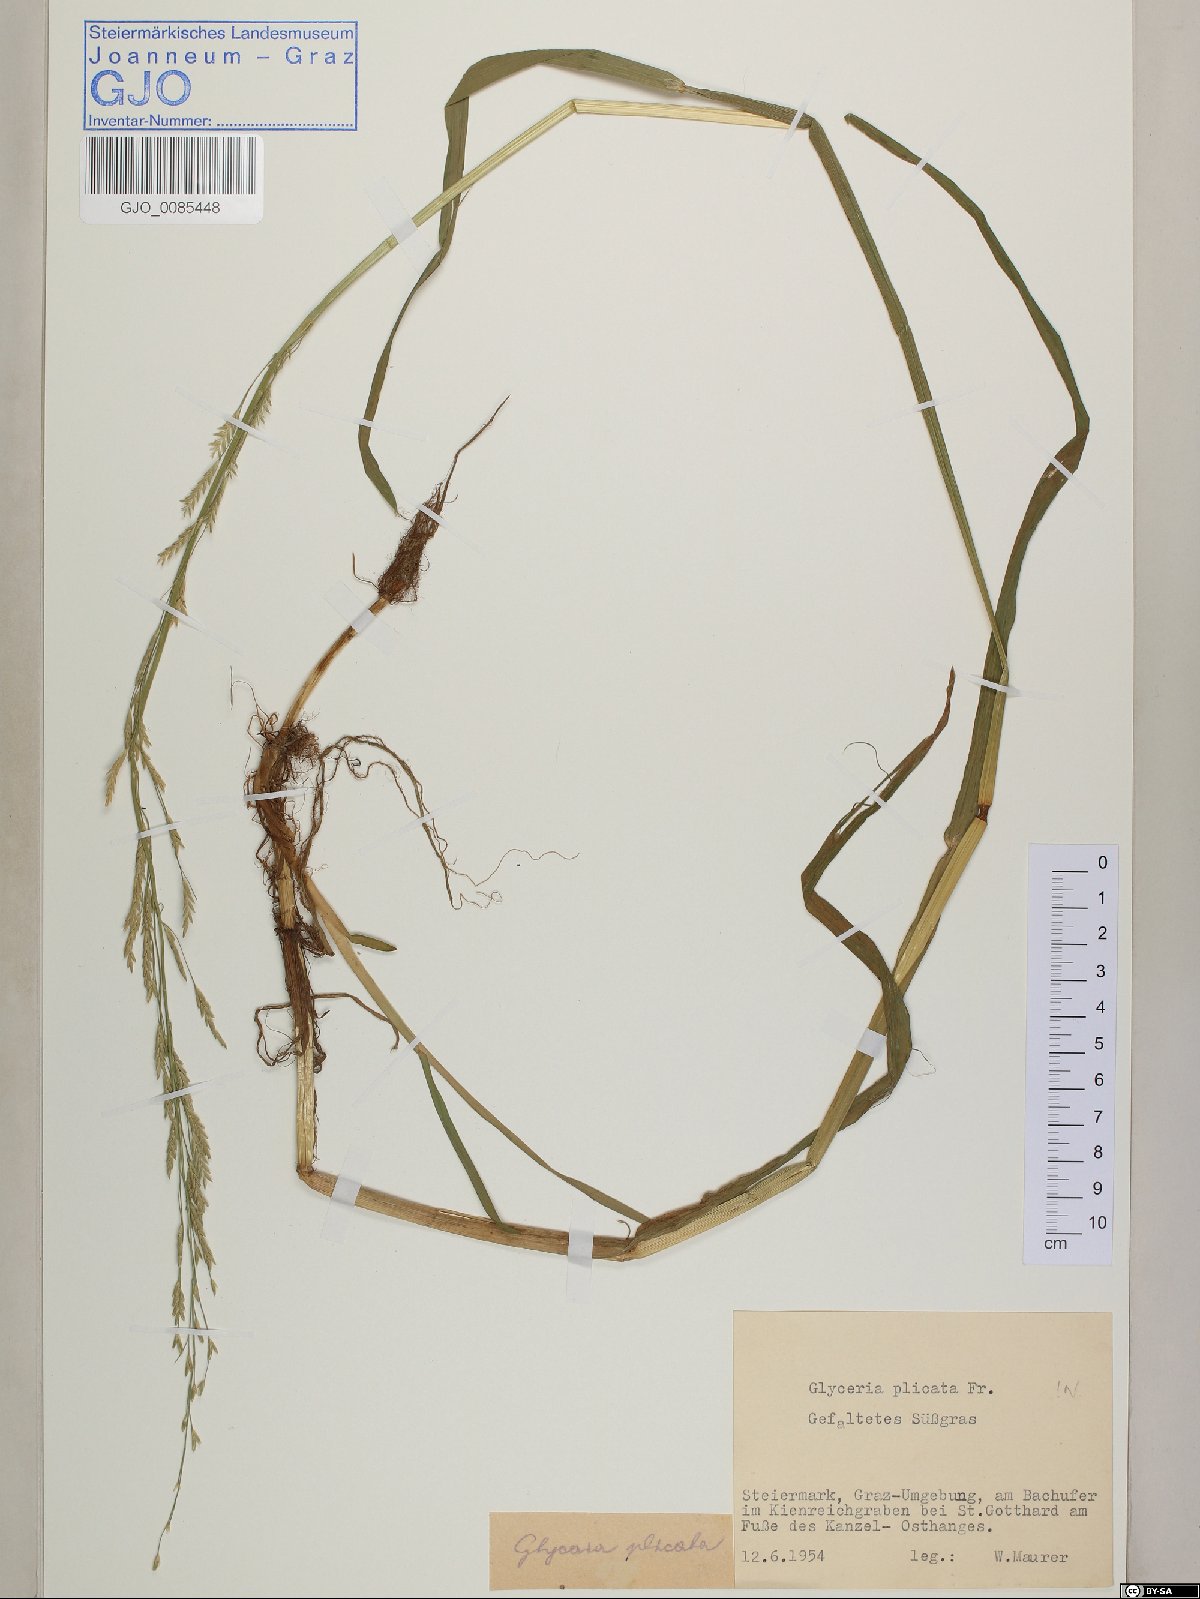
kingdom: Plantae
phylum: Tracheophyta
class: Liliopsida
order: Poales
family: Poaceae
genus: Glyceria
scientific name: Glyceria notata
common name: Plicate sweet-grass
